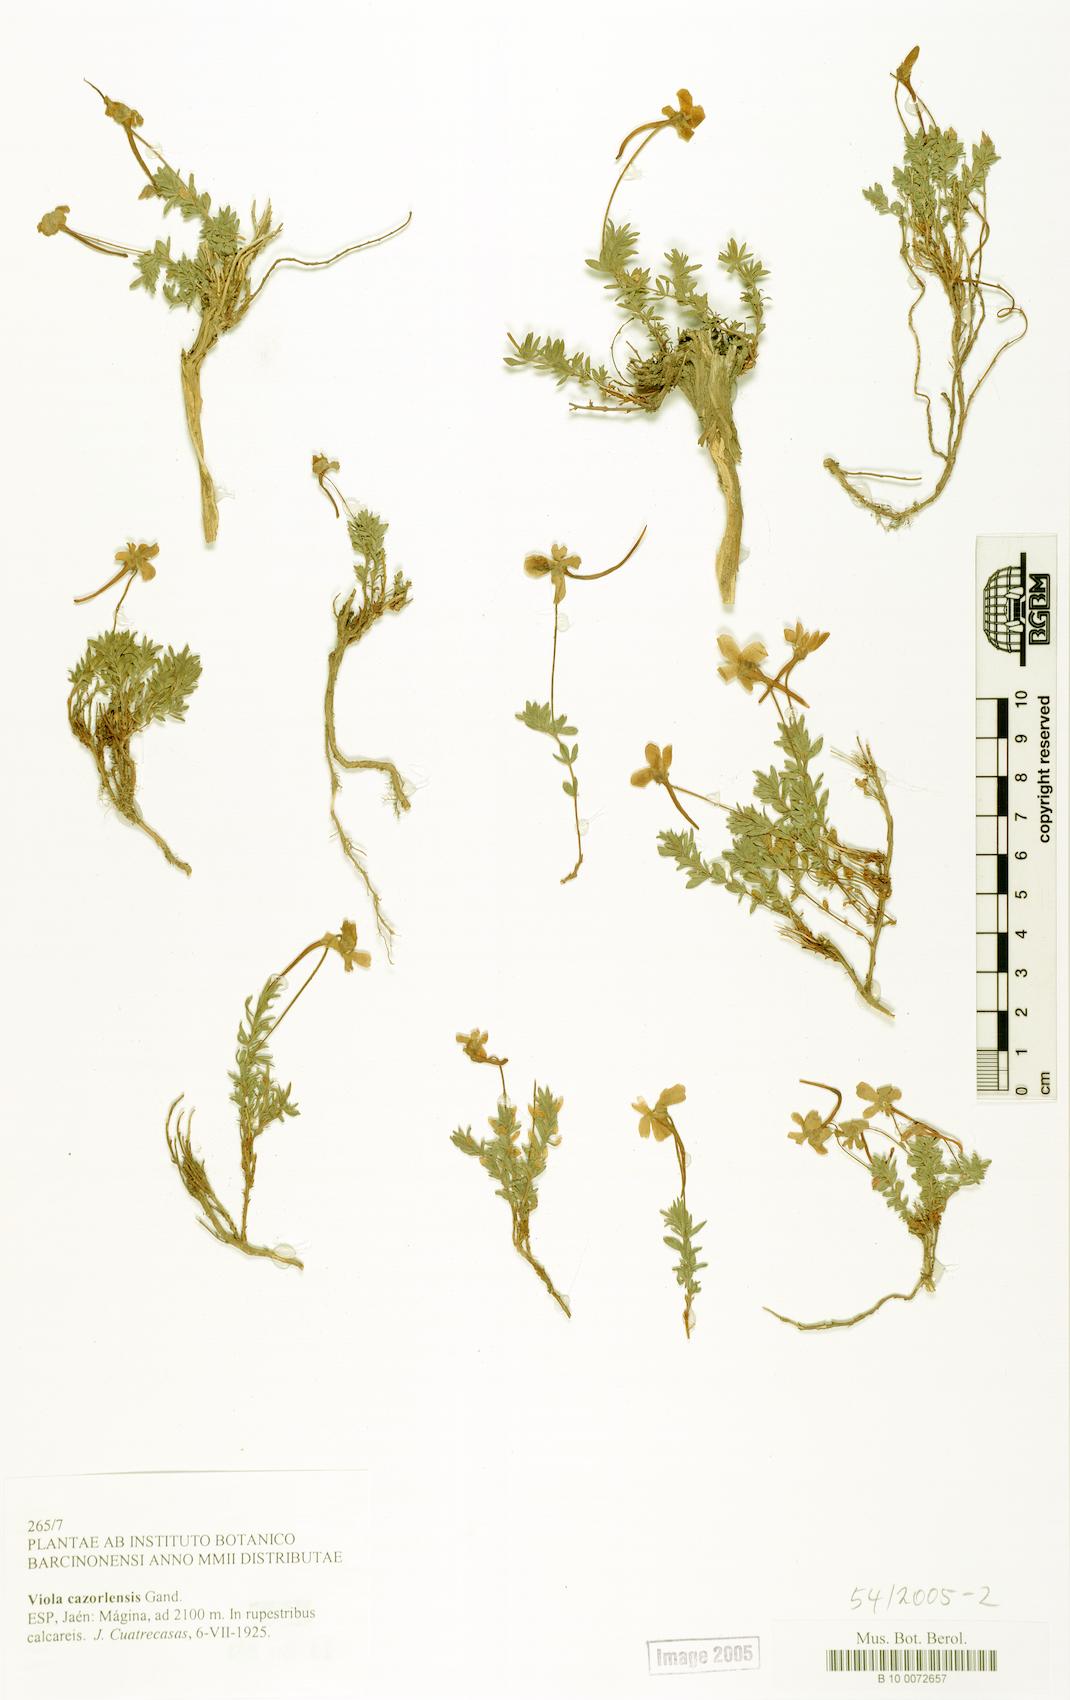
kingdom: Plantae
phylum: Tracheophyta
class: Magnoliopsida
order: Malpighiales
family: Violaceae
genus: Viola
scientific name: Viola cazorlensis
